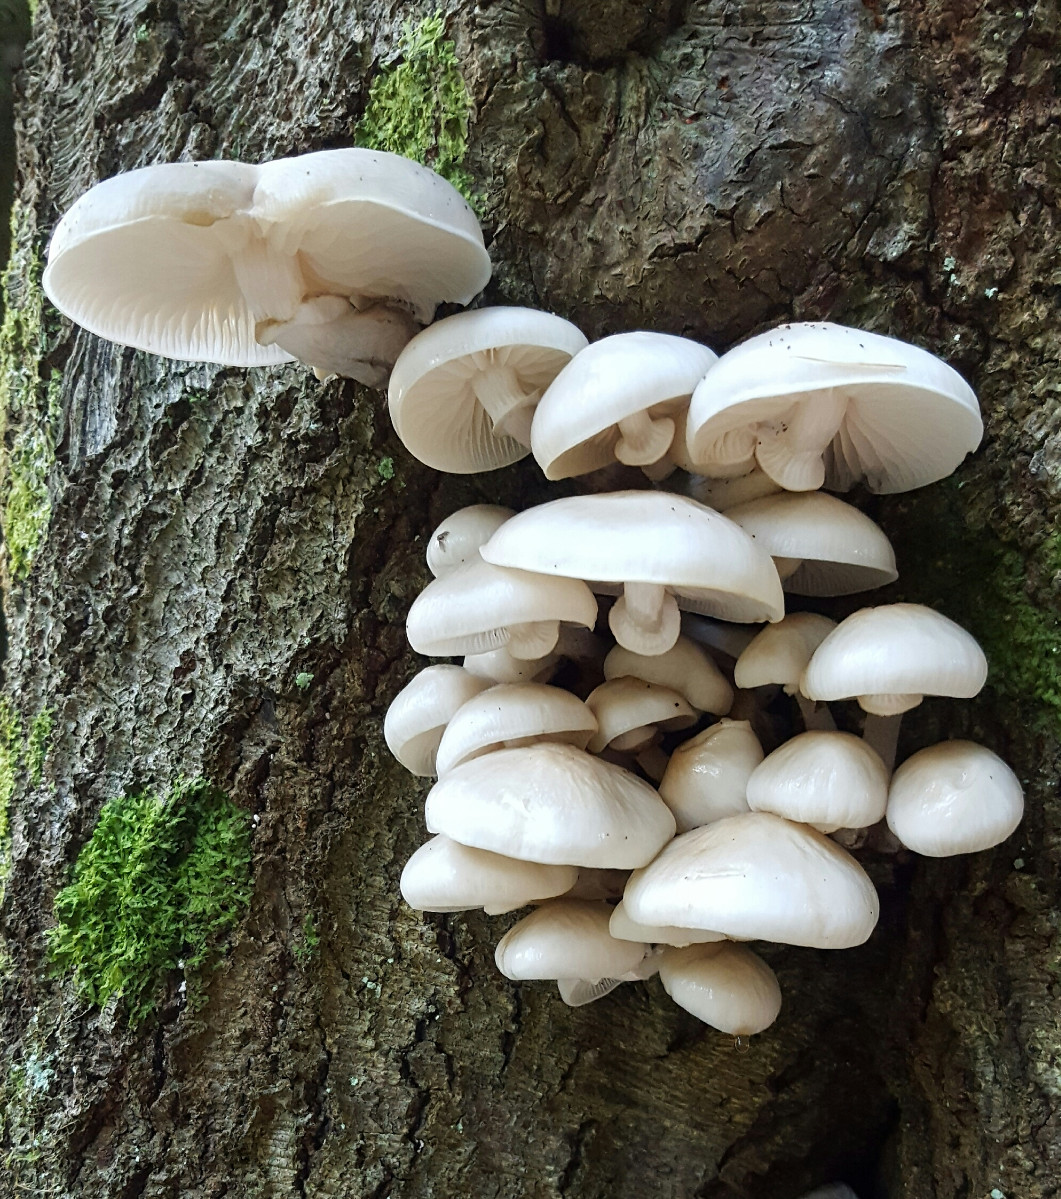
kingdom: Fungi
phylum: Basidiomycota
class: Agaricomycetes
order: Agaricales
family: Physalacriaceae
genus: Mucidula
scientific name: Mucidula mucida
